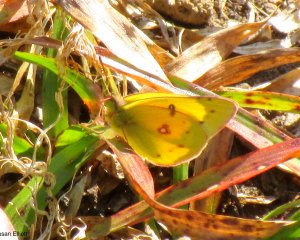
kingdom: Animalia
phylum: Arthropoda
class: Insecta
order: Lepidoptera
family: Pieridae
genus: Colias
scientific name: Colias eurytheme
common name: Orange Sulphur
